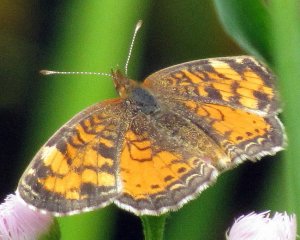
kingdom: Animalia
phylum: Arthropoda
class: Insecta
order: Lepidoptera
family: Nymphalidae
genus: Phyciodes
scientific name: Phyciodes tharos
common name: Northern Crescent
